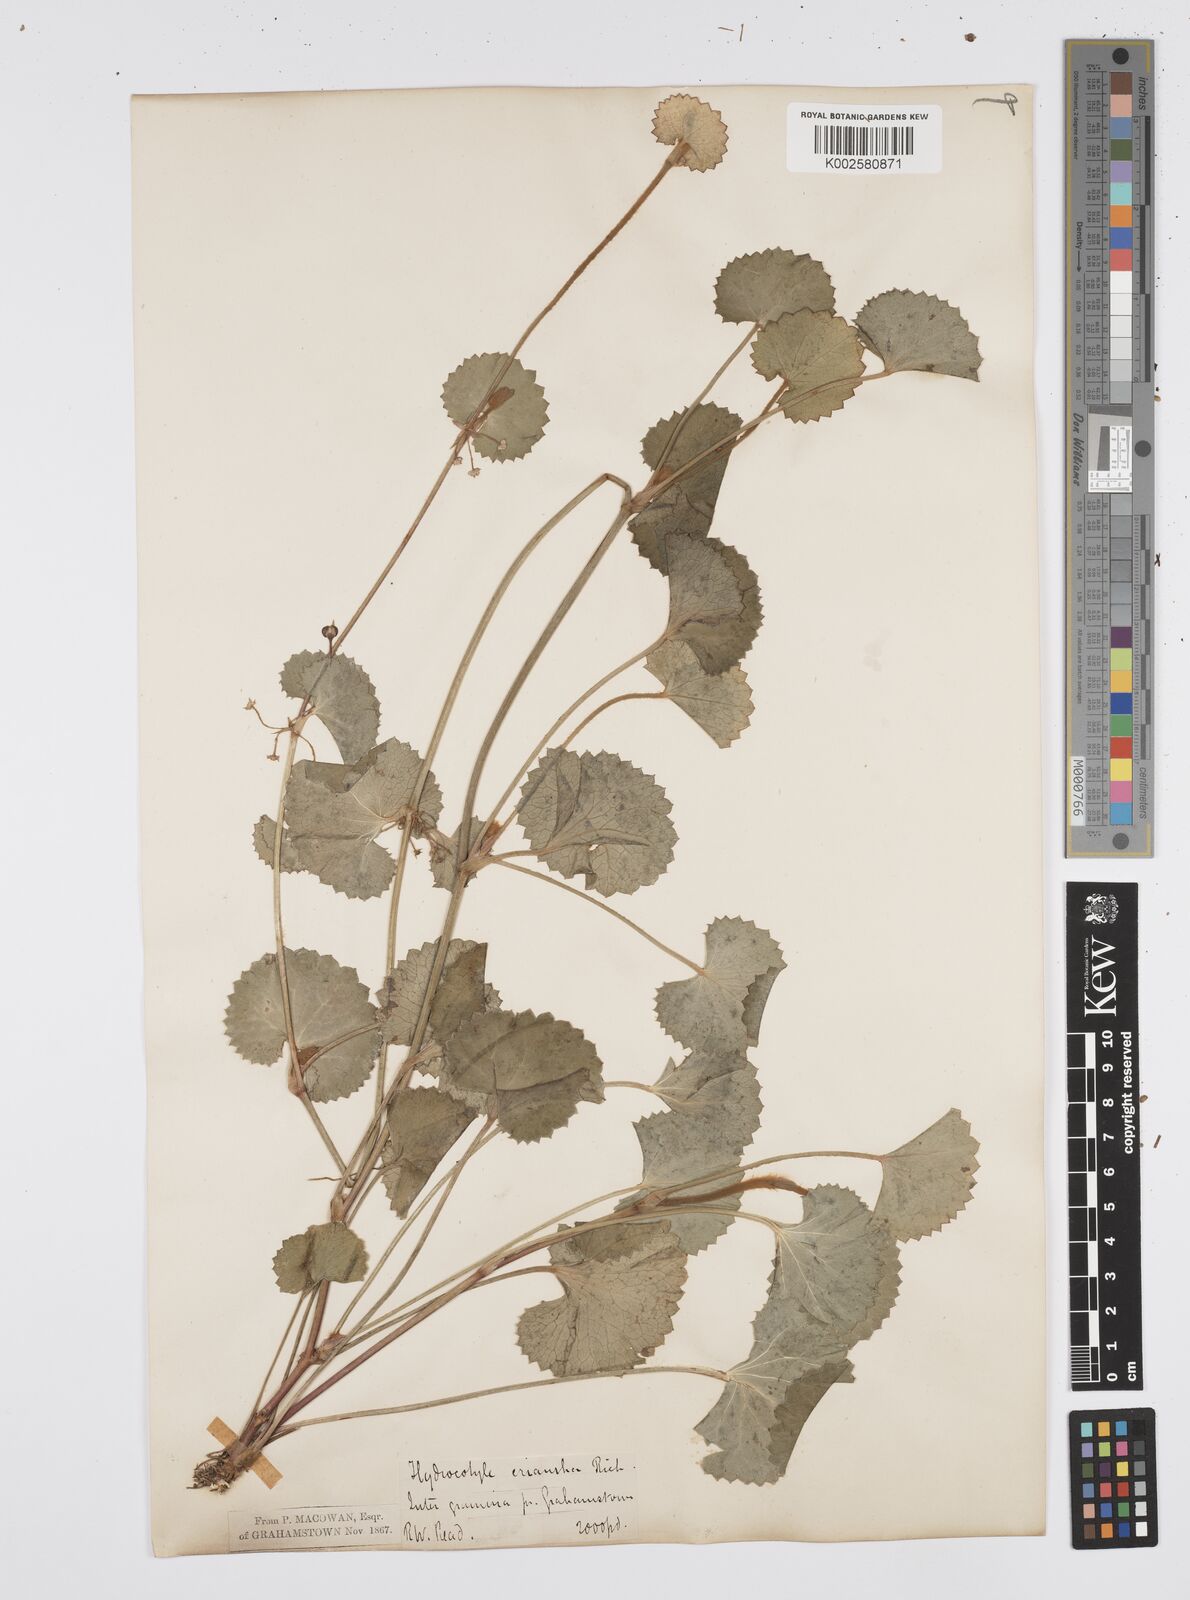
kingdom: Plantae
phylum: Tracheophyta
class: Magnoliopsida
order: Apiales
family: Apiaceae
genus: Centella
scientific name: Centella eriantha
